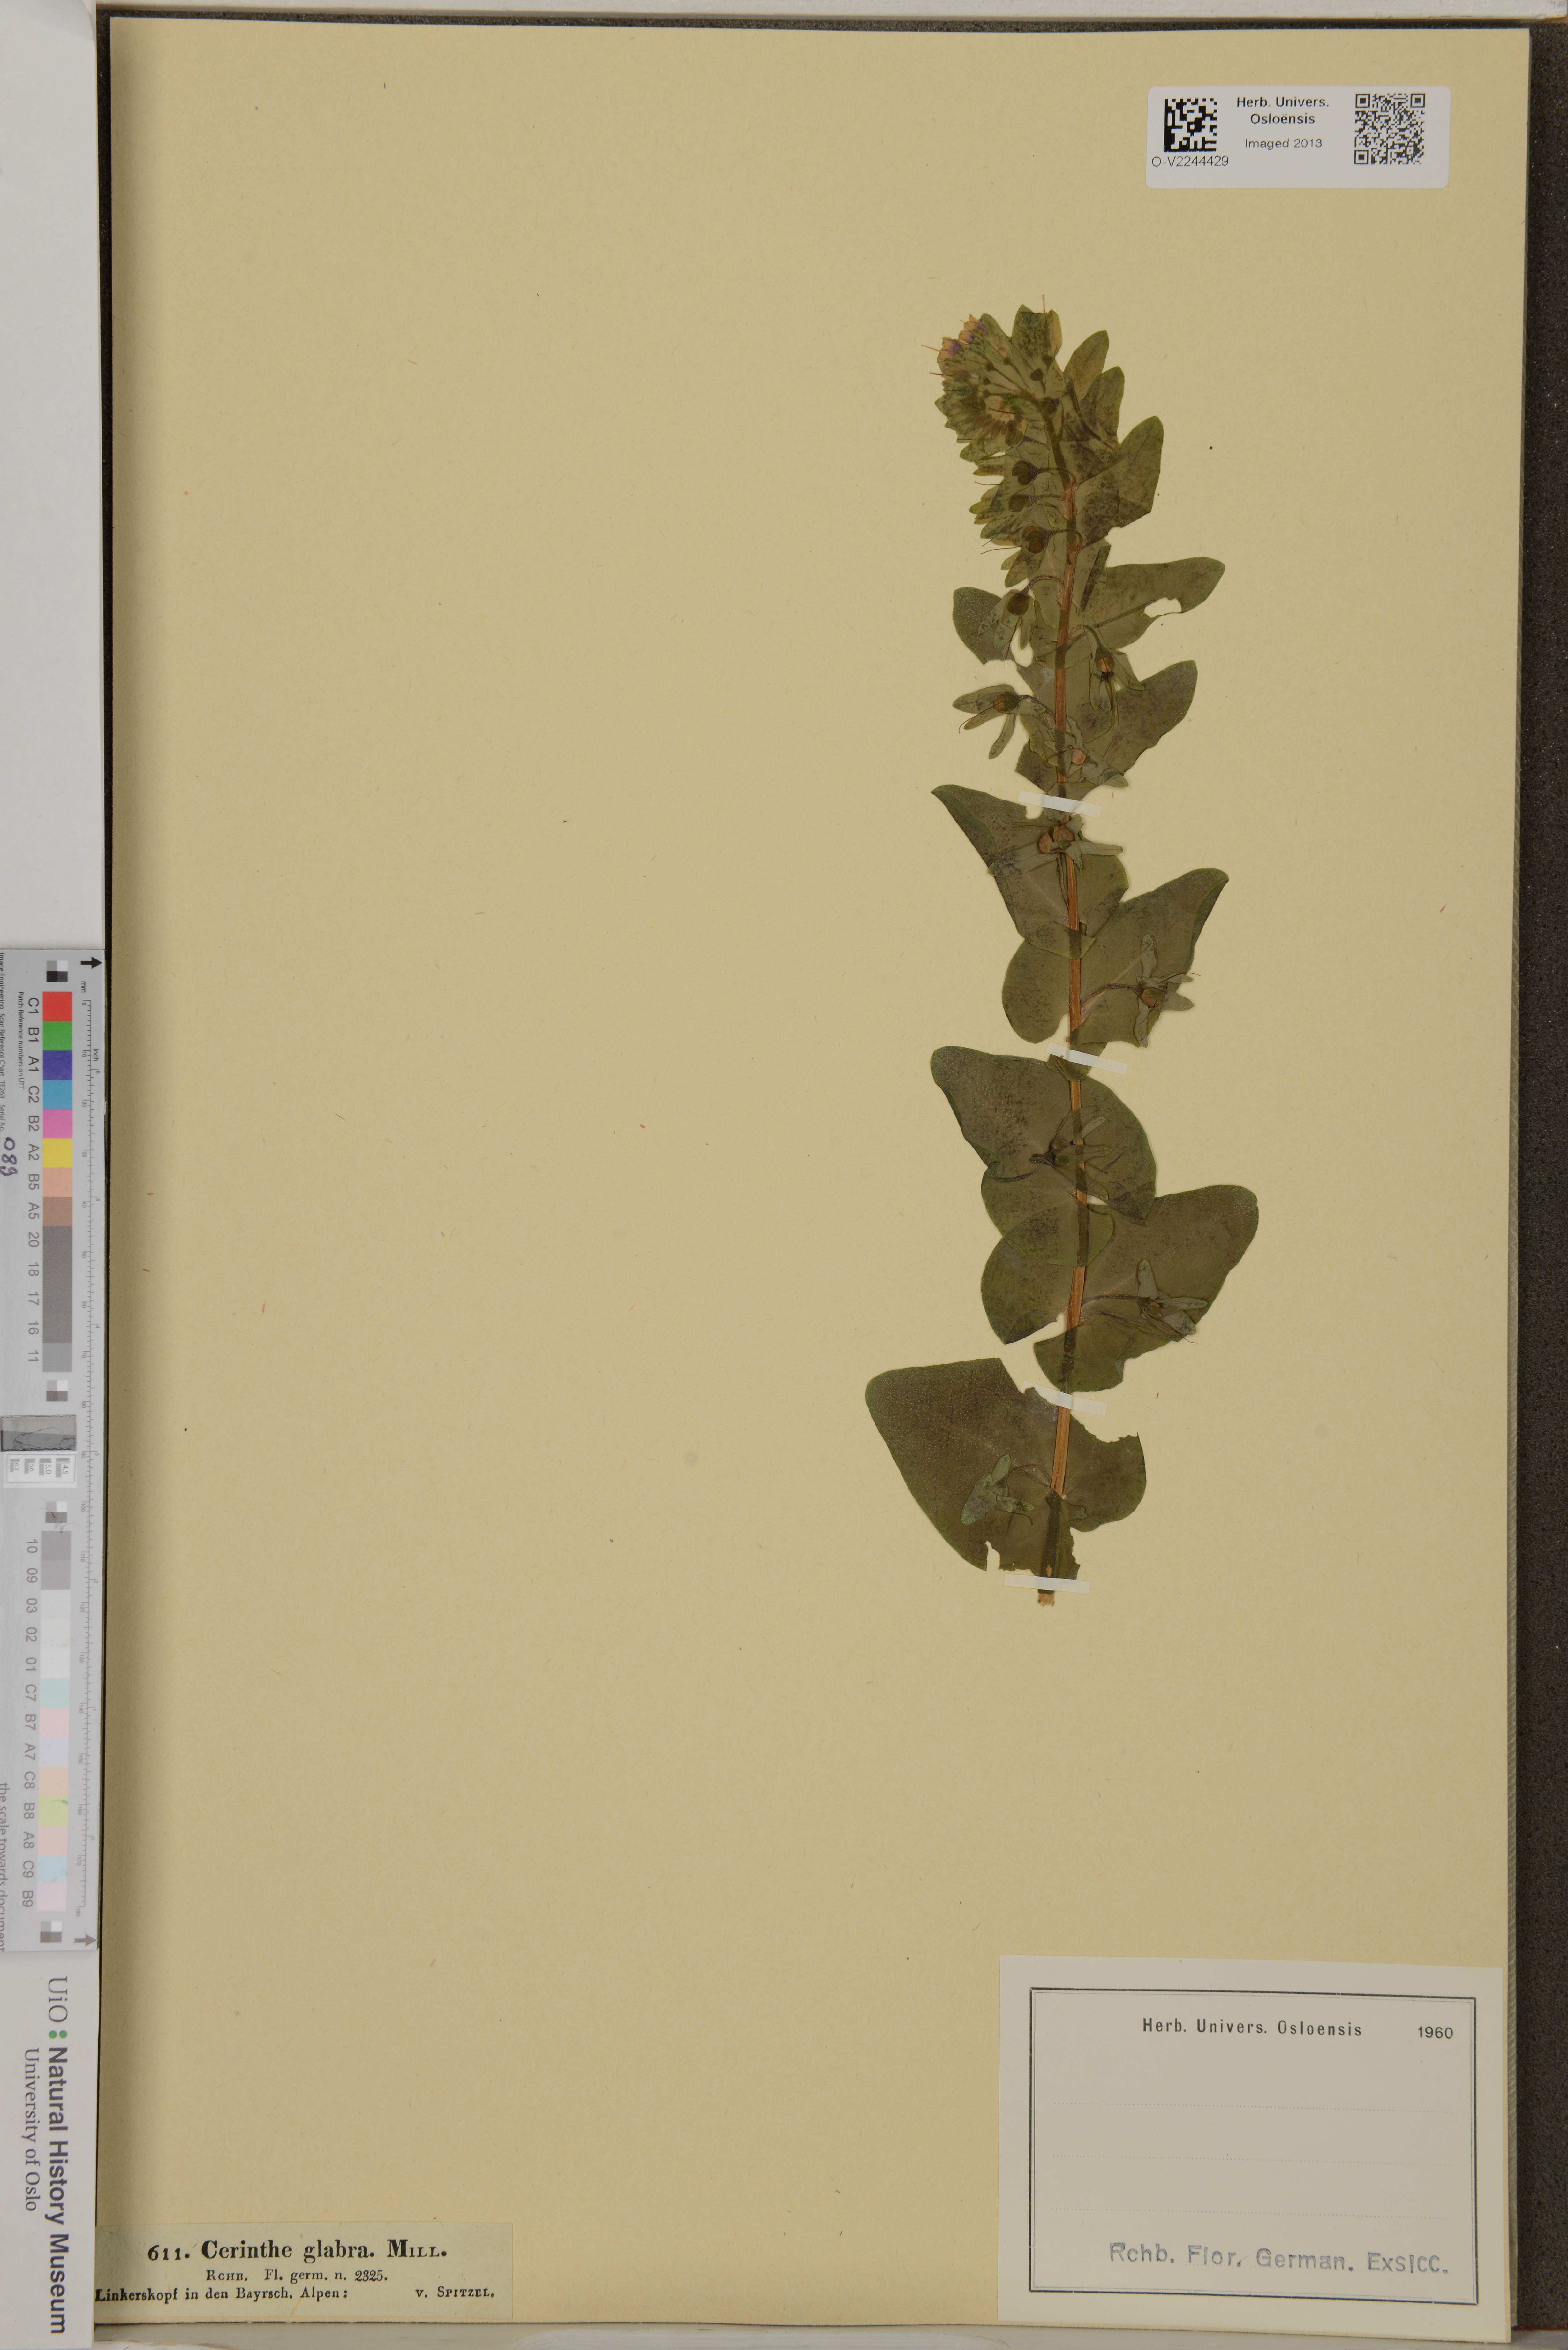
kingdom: Plantae
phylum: Tracheophyta
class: Magnoliopsida
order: Boraginales
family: Boraginaceae
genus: Cerinthe
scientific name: Cerinthe glabra
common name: Smooth honeywort
